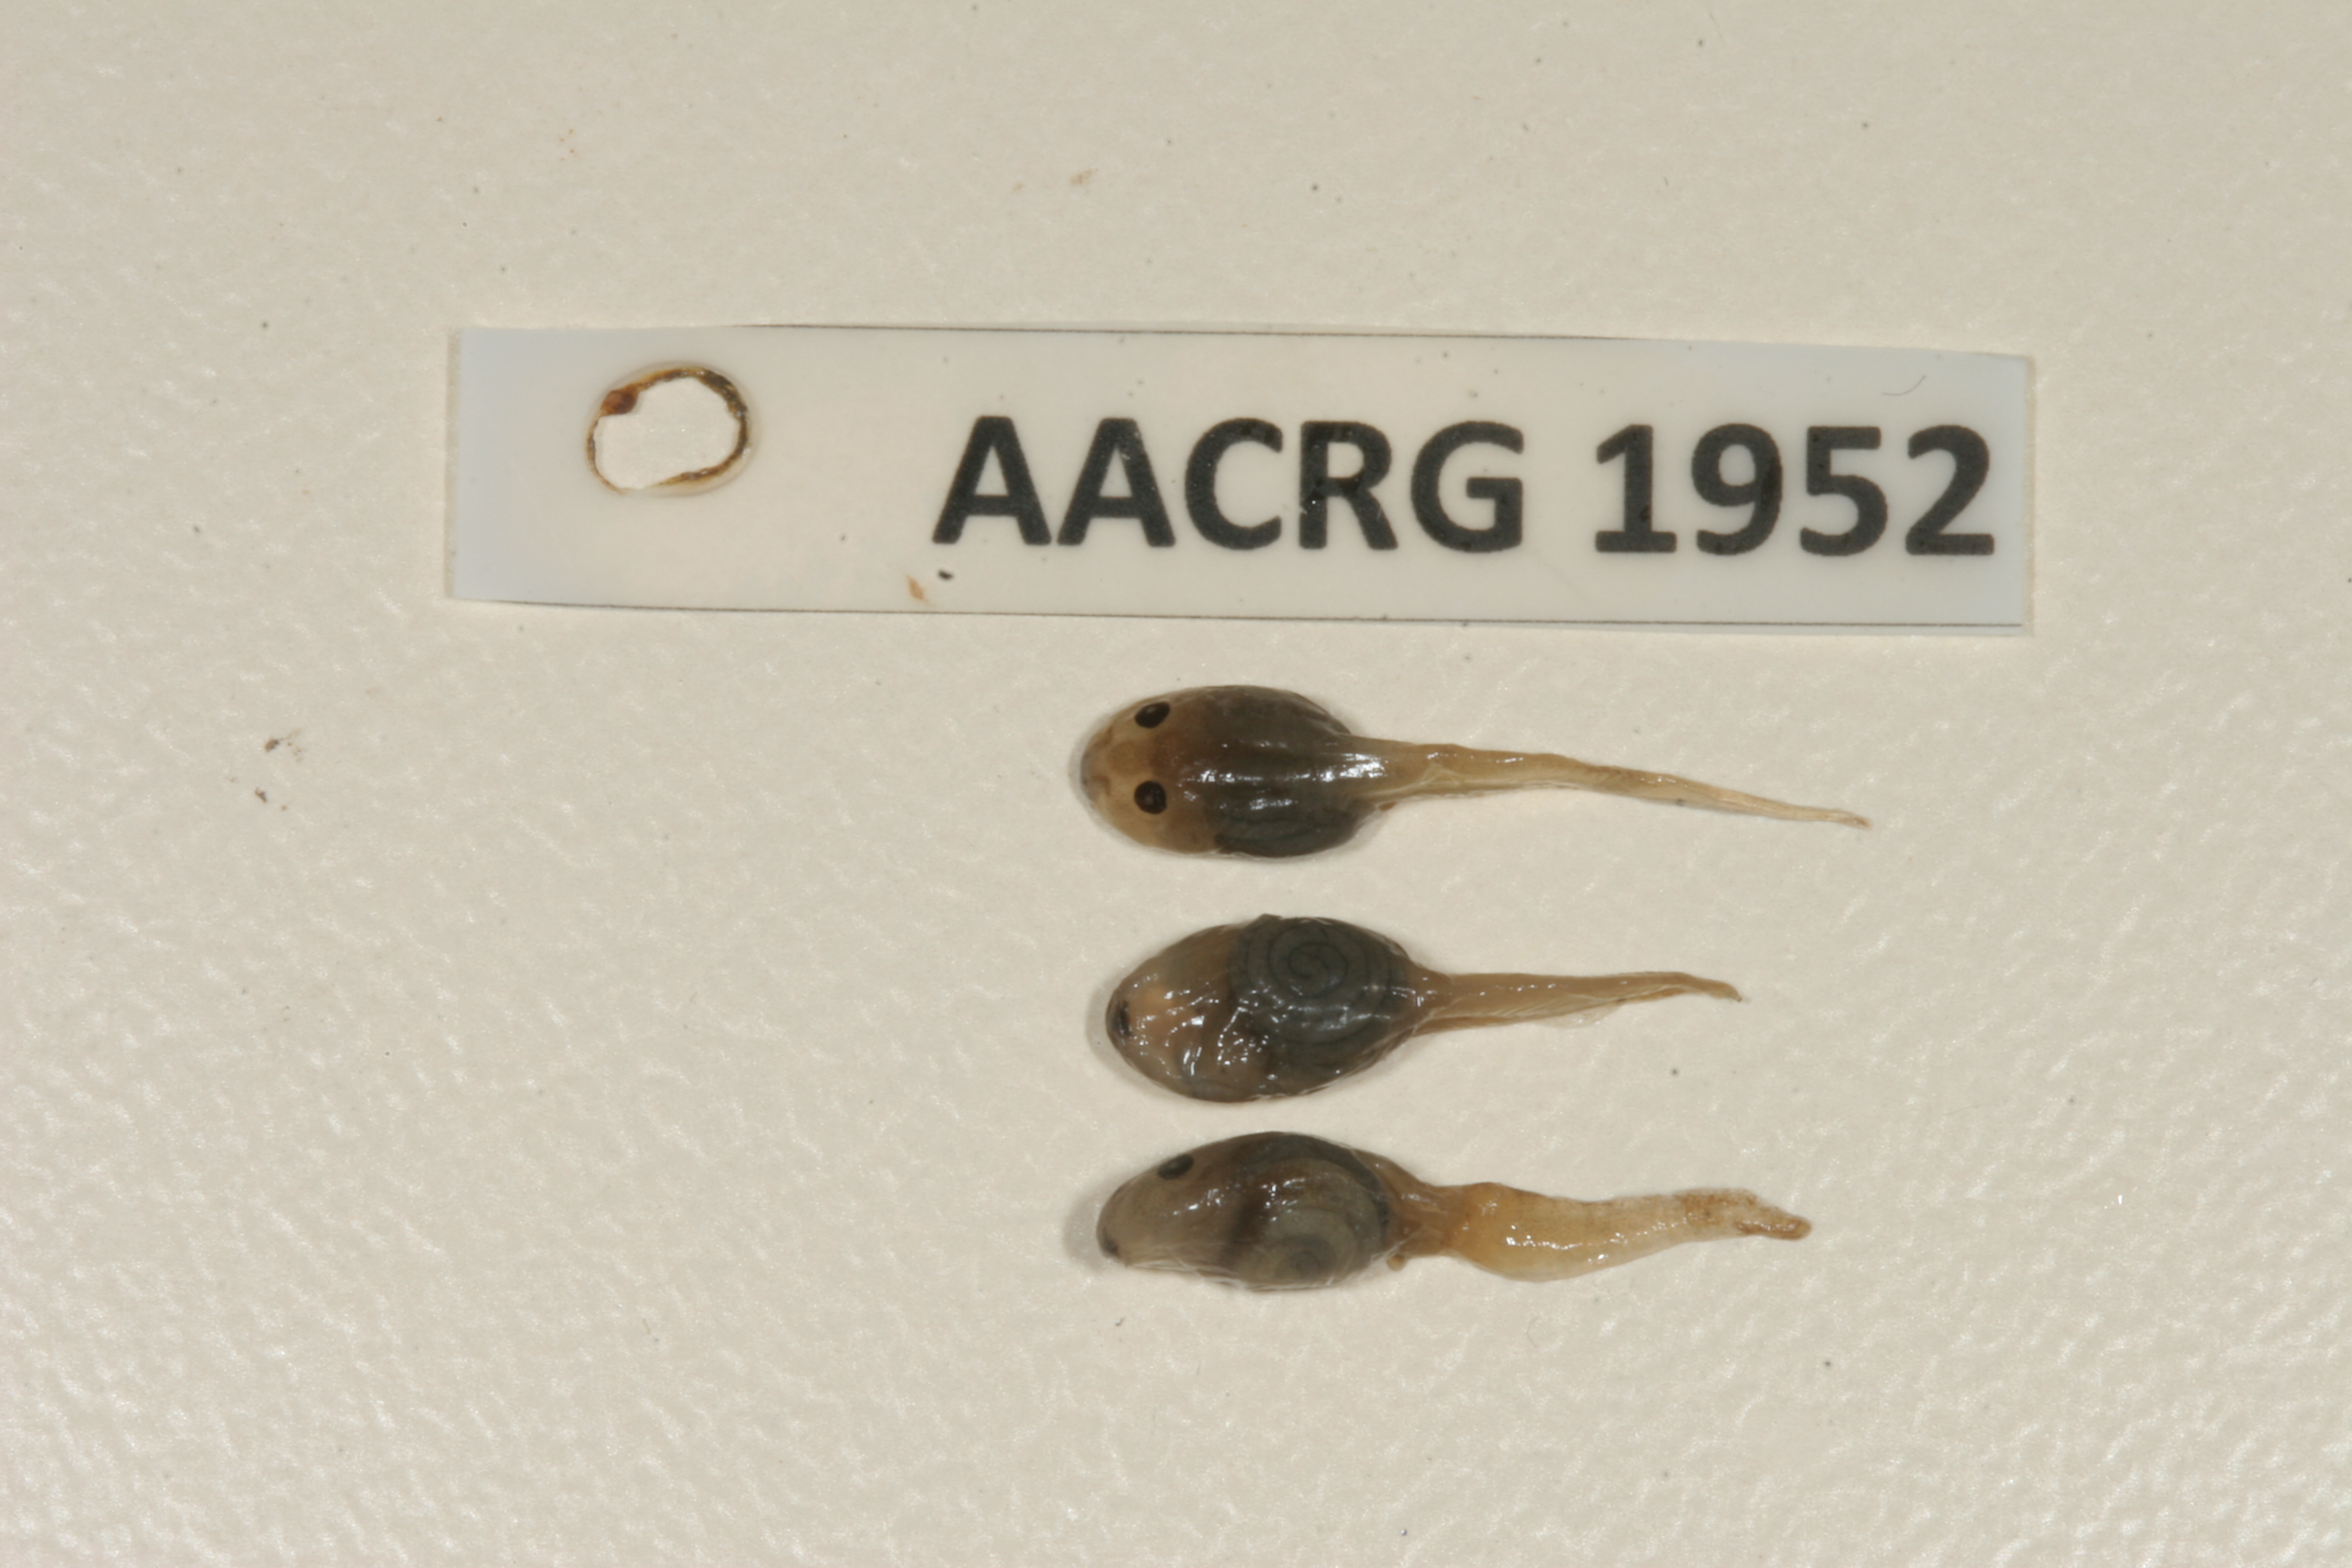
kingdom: Animalia
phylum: Chordata
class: Amphibia
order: Anura
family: Ptychadenidae
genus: Ptychadena
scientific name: Ptychadena subpunctata
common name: Bocage's grassland frog
